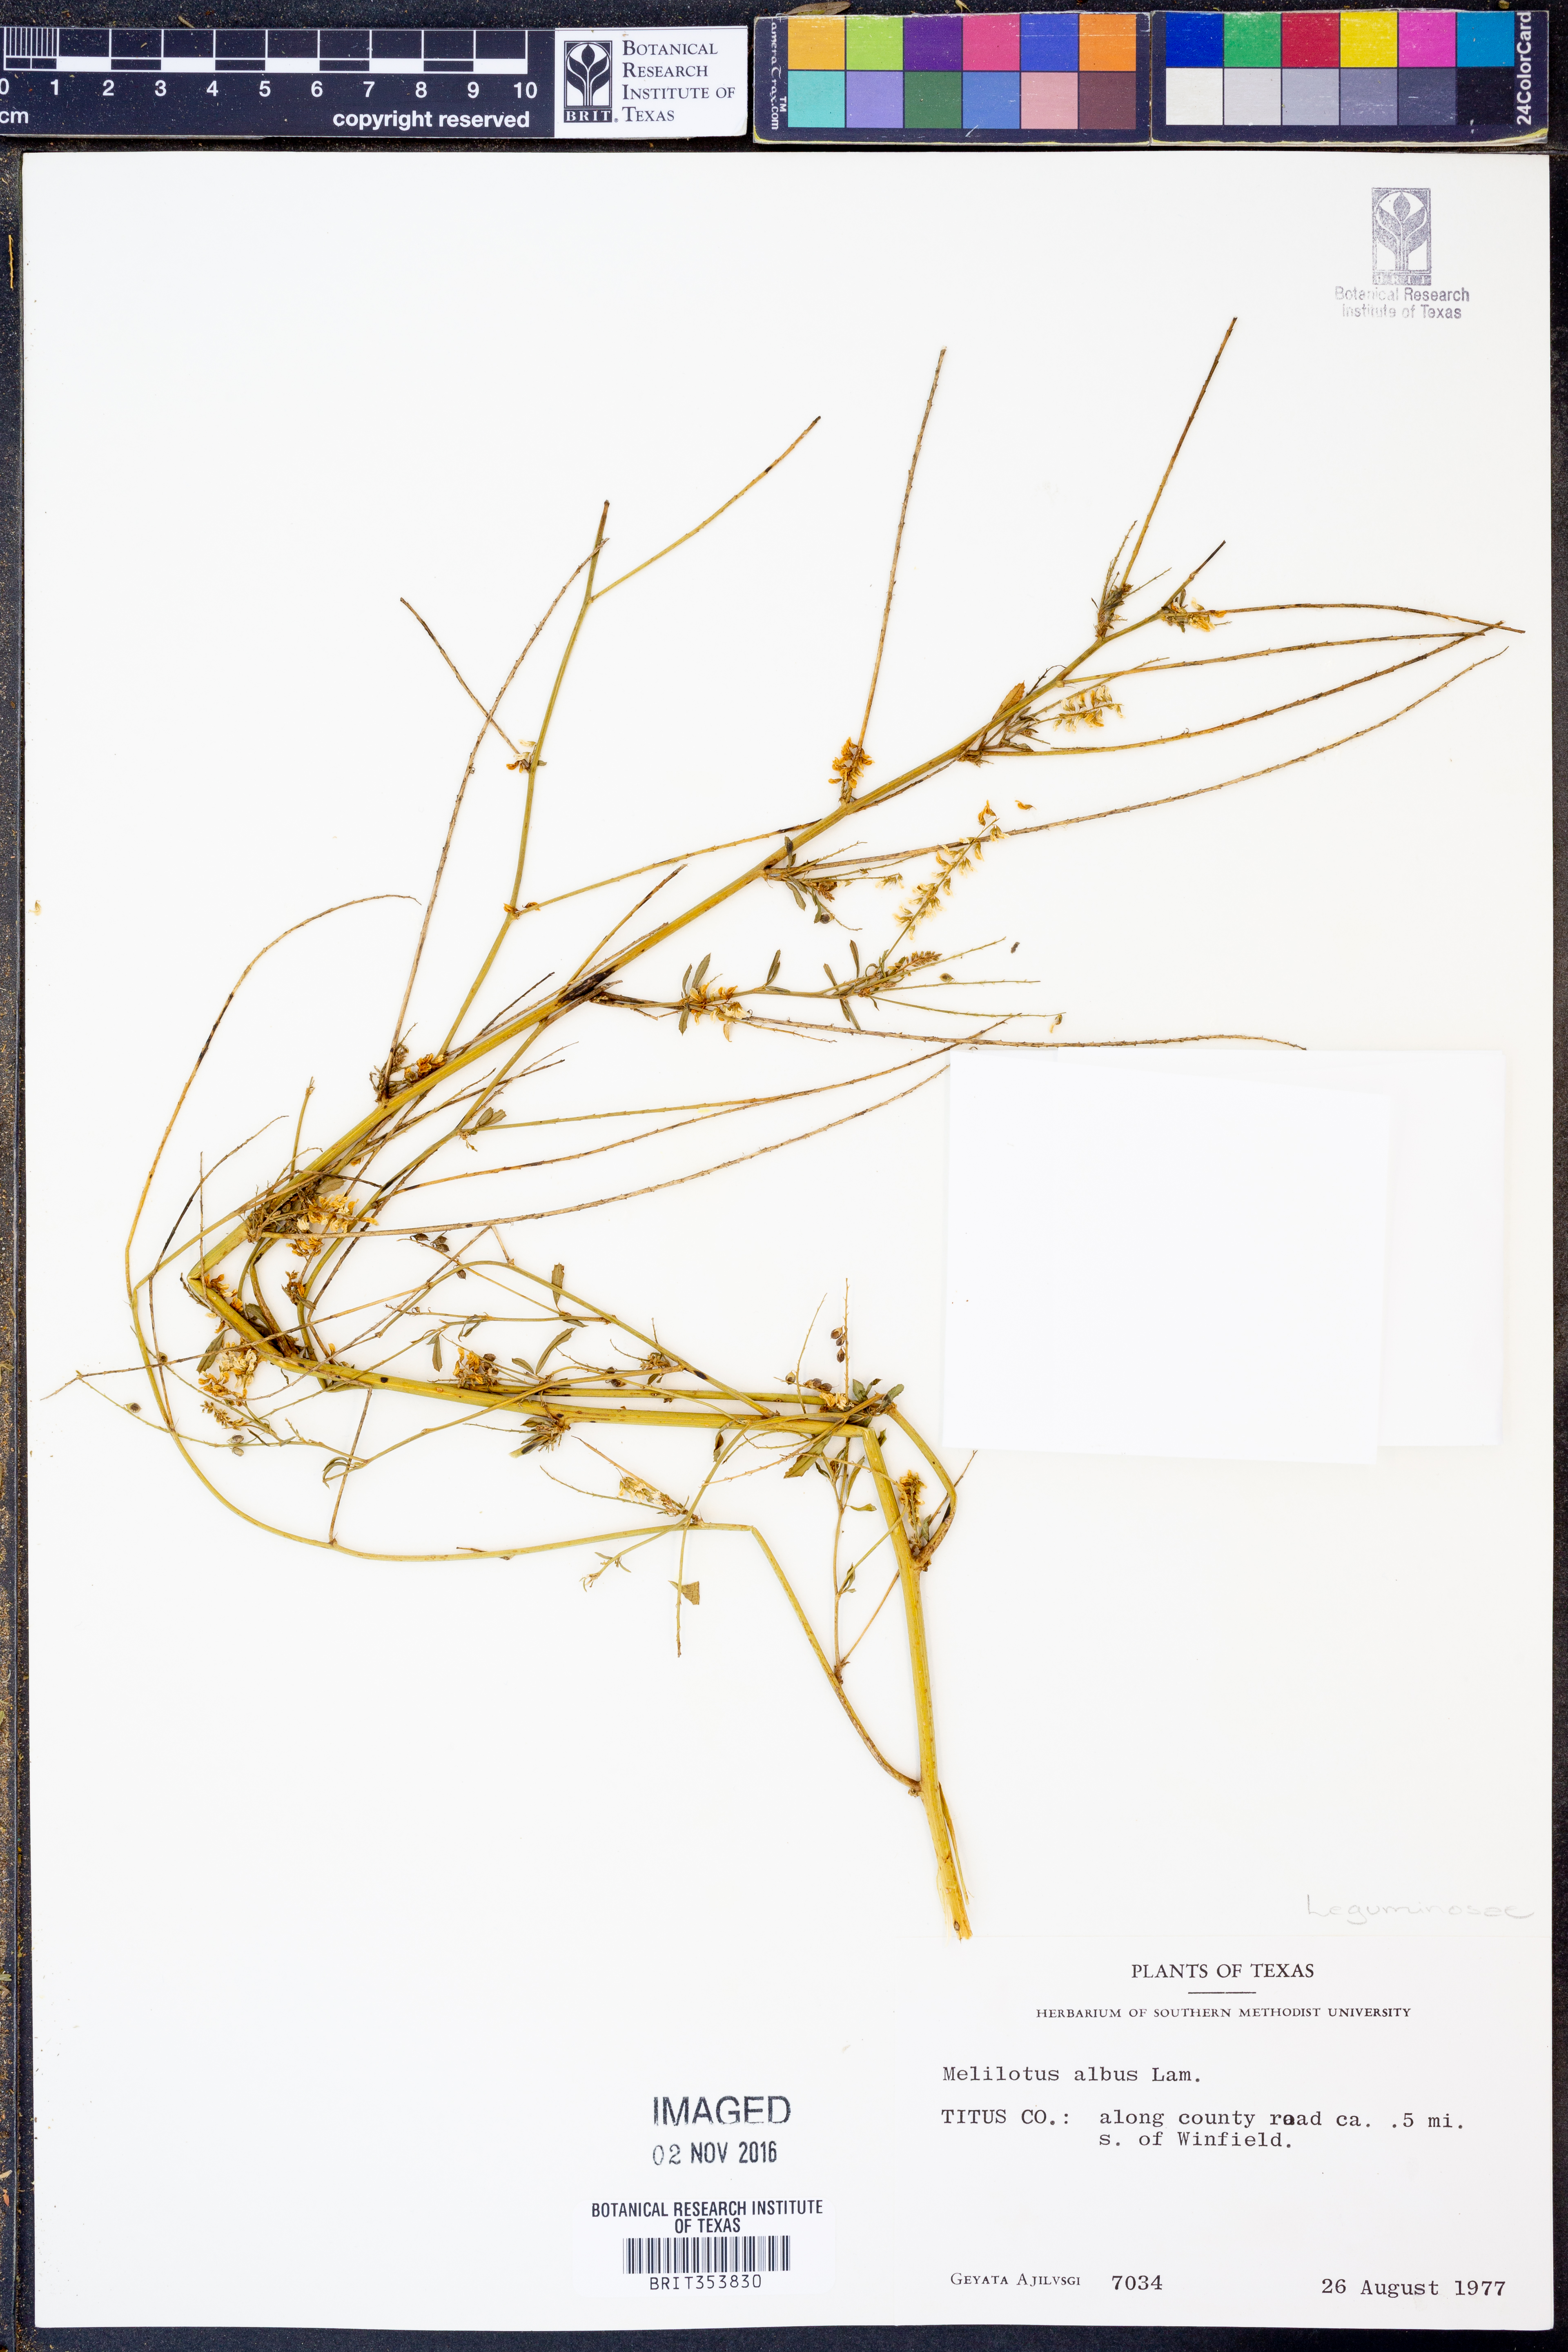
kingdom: Plantae
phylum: Tracheophyta
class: Magnoliopsida
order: Fabales
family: Fabaceae
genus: Melilotus
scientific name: Melilotus albus
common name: White melilot
